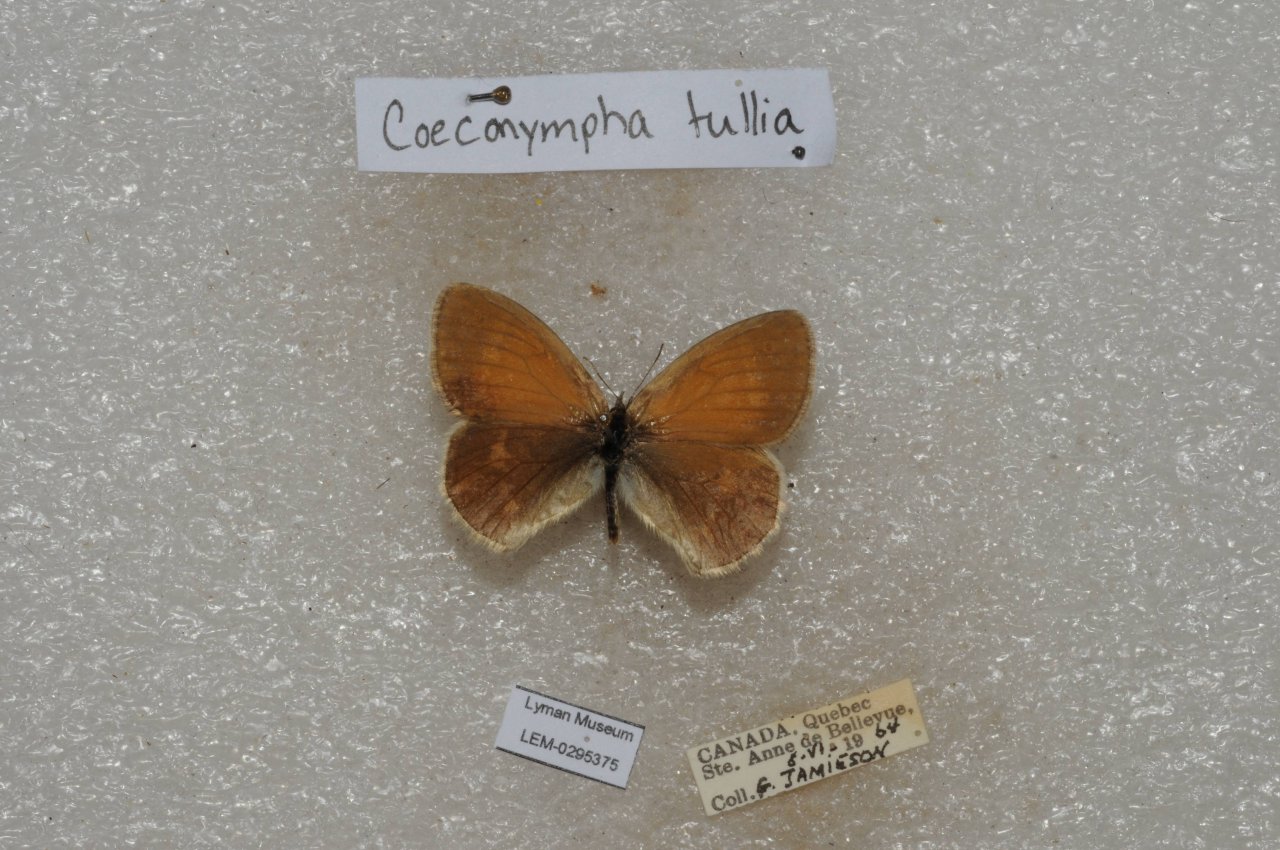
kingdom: Animalia
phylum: Arthropoda
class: Insecta
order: Lepidoptera
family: Nymphalidae
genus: Coenonympha
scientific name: Coenonympha tullia
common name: Large Heath
